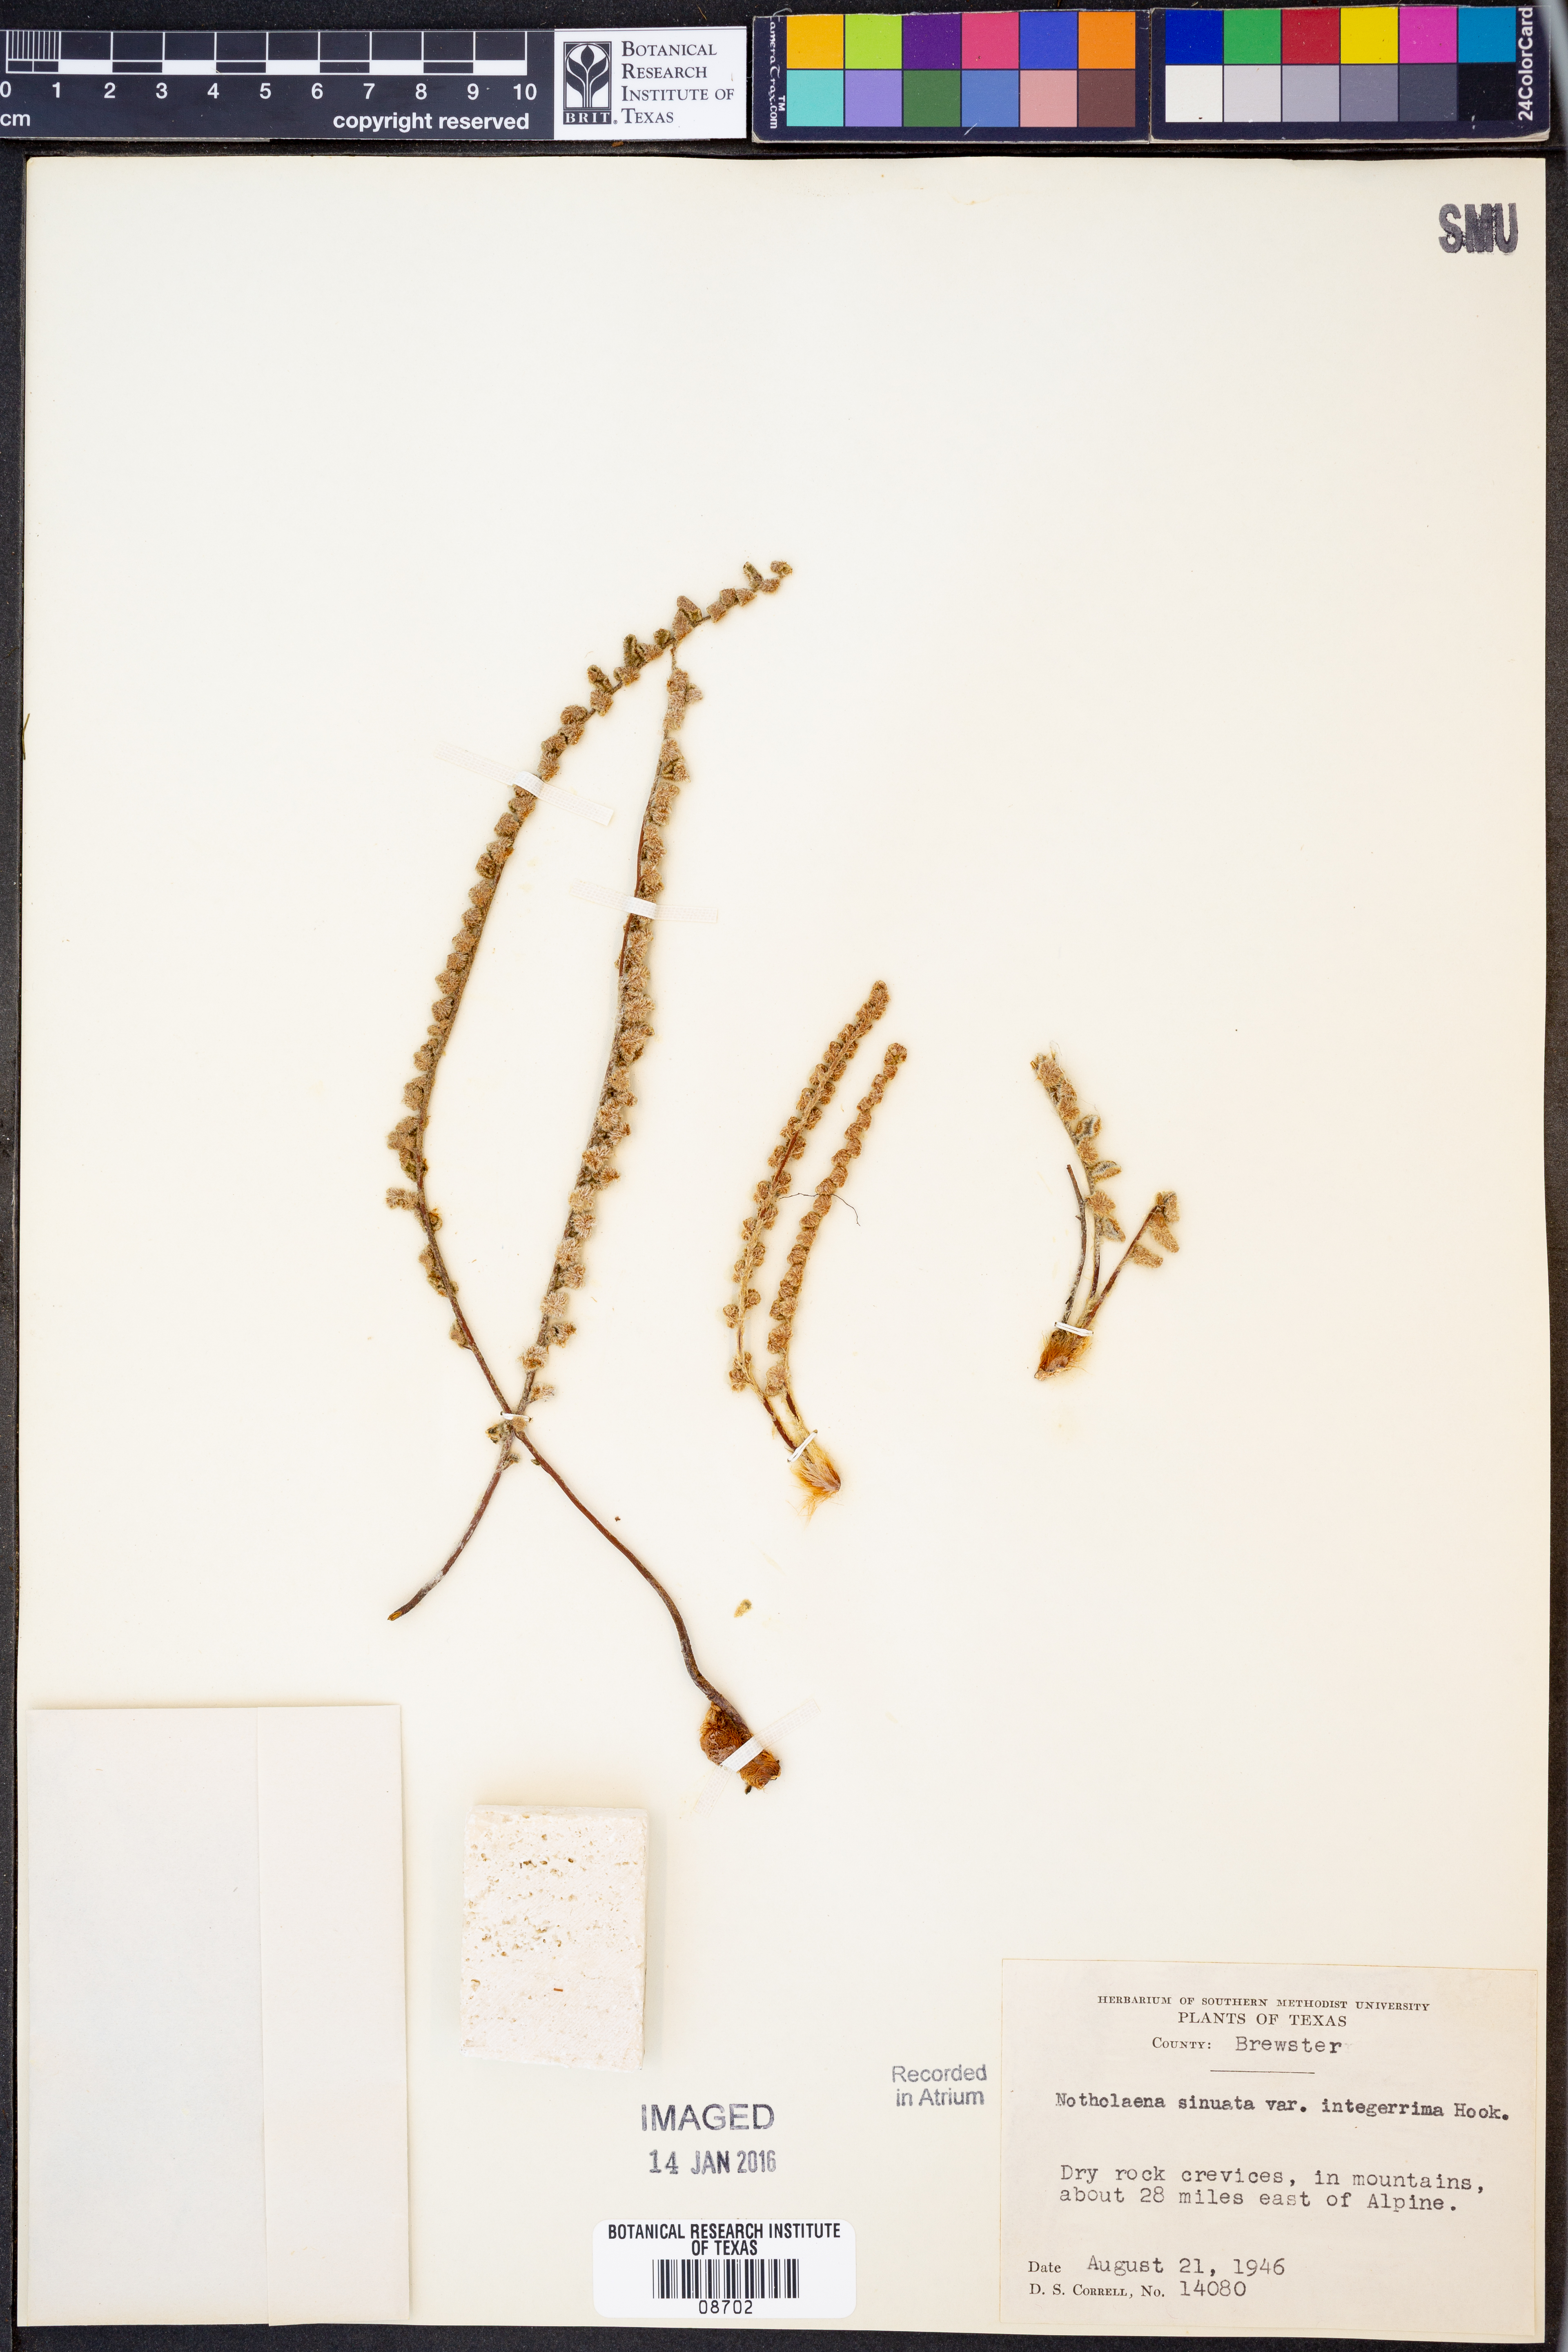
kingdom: Plantae
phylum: Tracheophyta
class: Polypodiopsida
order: Polypodiales
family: Pteridaceae
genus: Astrolepis
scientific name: Astrolepis integerrima
